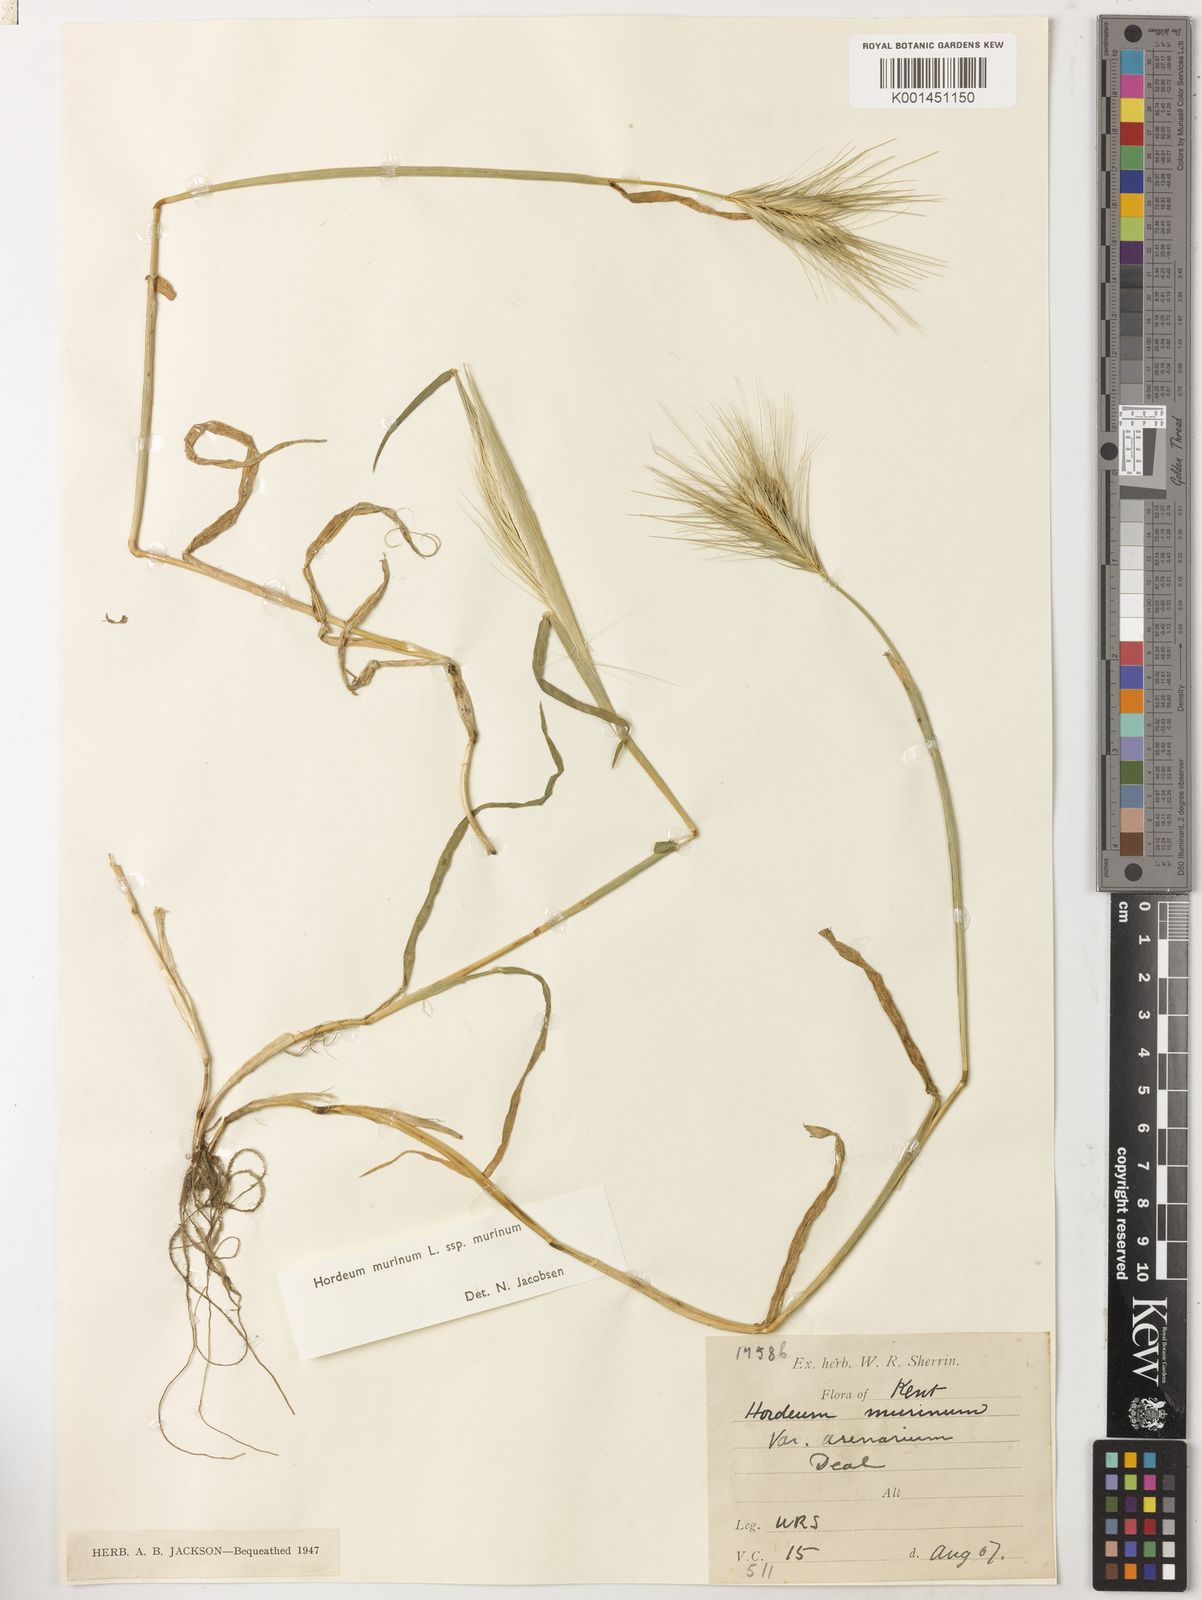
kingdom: Plantae
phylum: Tracheophyta
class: Liliopsida
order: Poales
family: Poaceae
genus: Hordeum
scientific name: Hordeum murinum
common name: Wall barley
